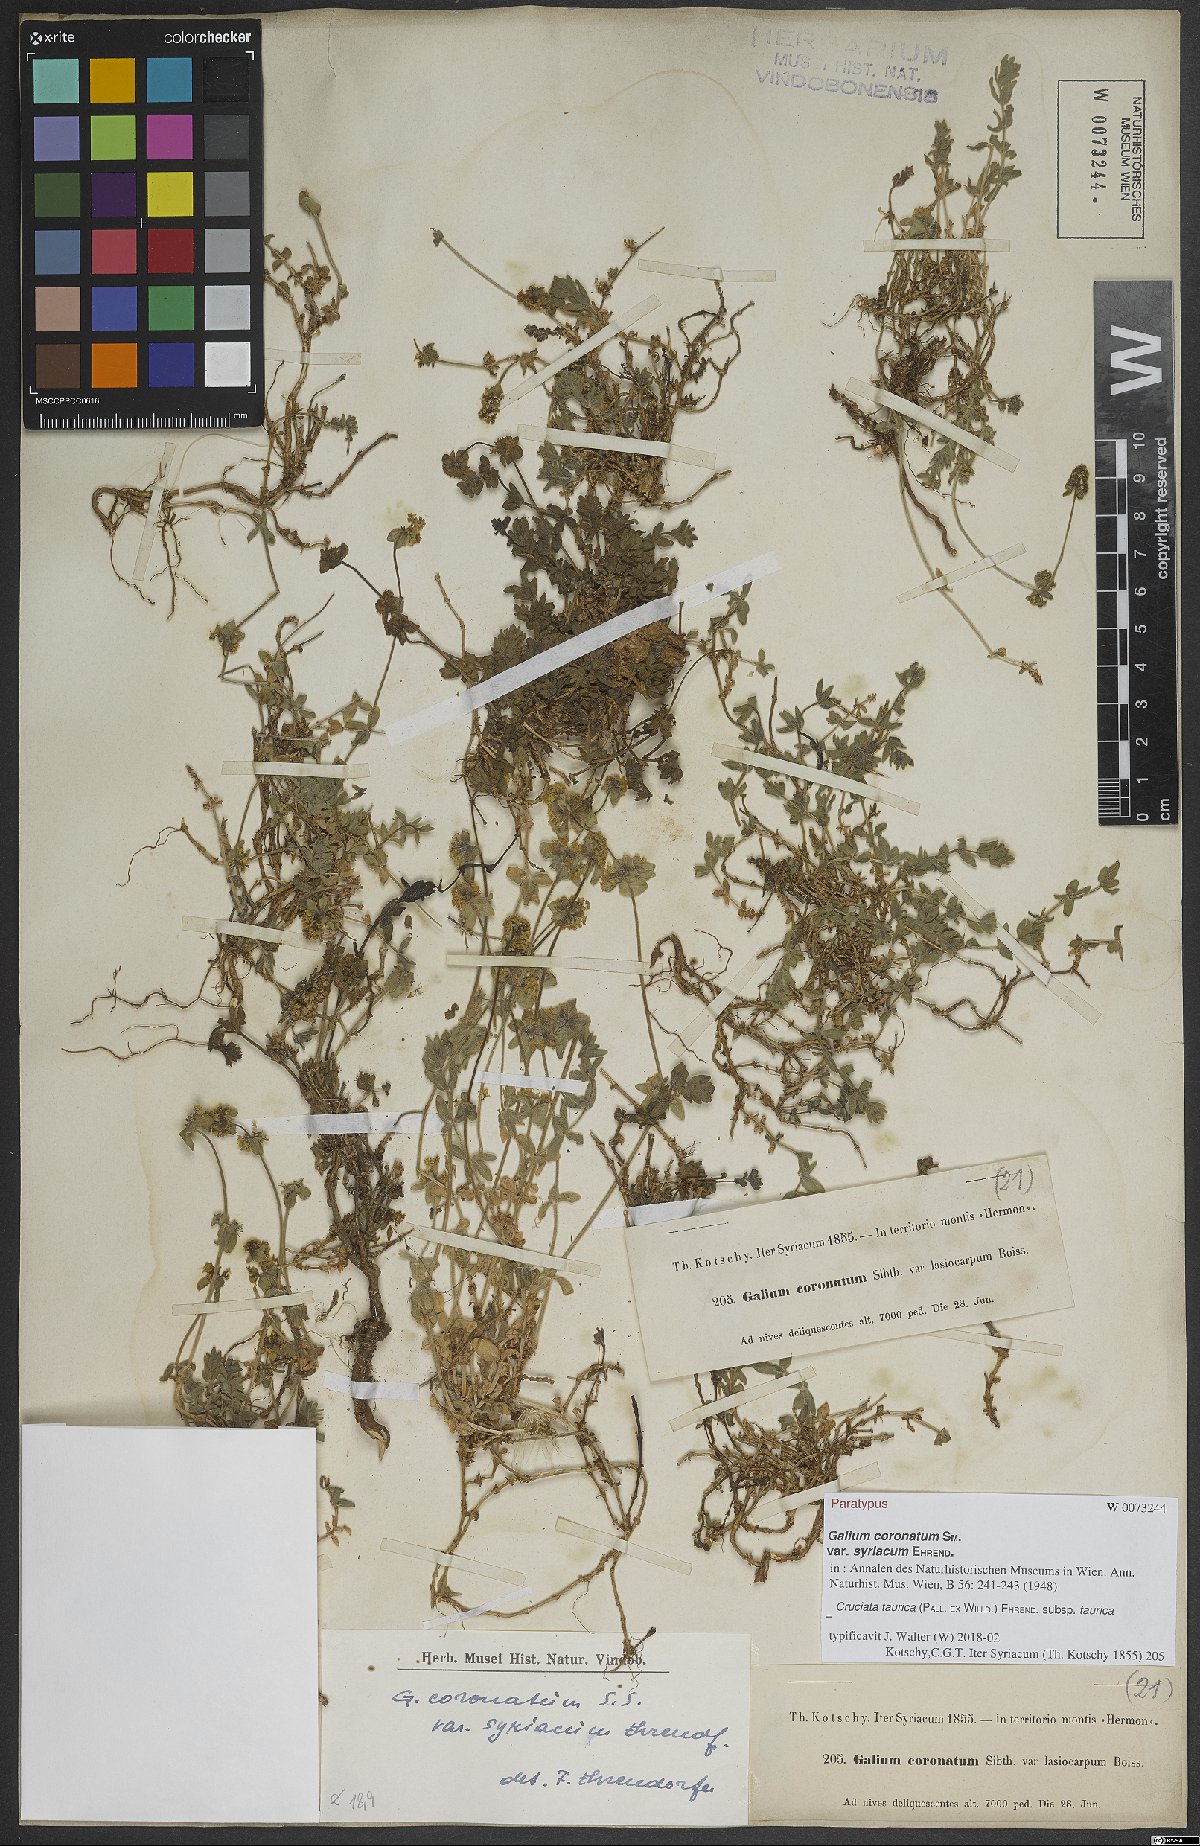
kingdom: Plantae
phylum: Tracheophyta
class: Magnoliopsida
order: Gentianales
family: Rubiaceae
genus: Cruciata
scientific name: Cruciata taurica
